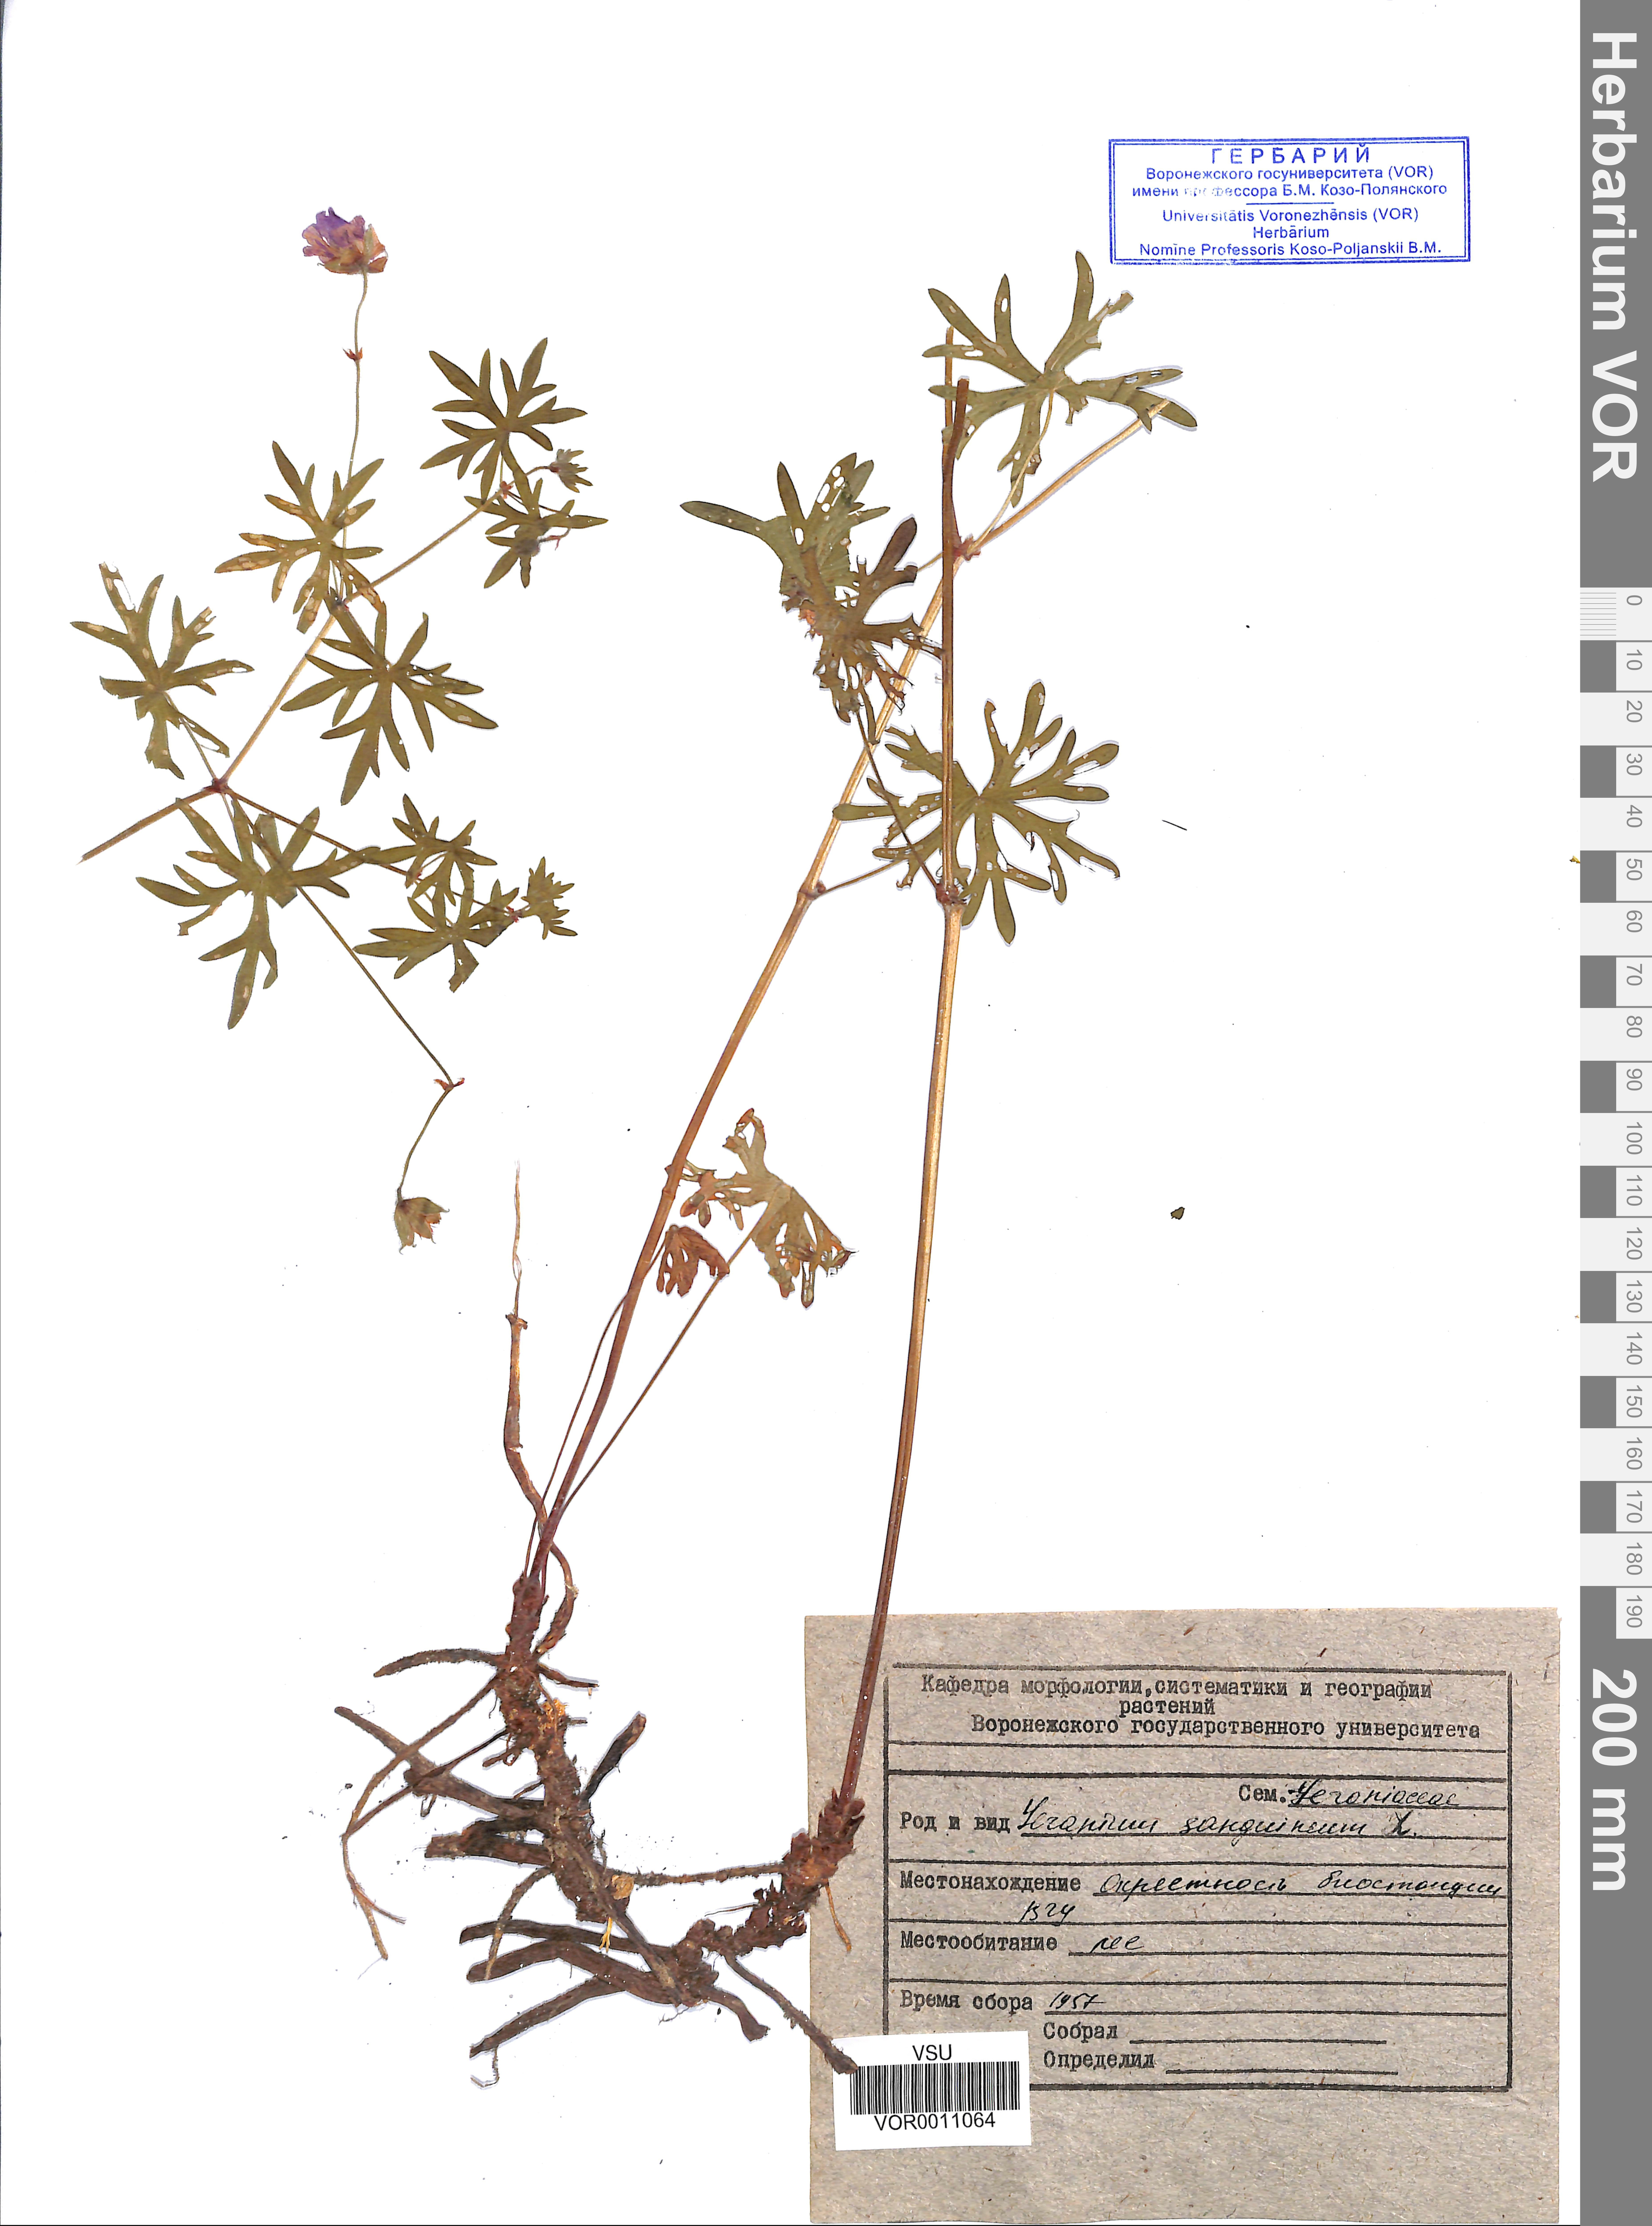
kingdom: Plantae
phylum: Tracheophyta
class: Magnoliopsida
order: Geraniales
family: Geraniaceae
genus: Geranium
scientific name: Geranium sanguineum
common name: Bloody crane's-bill
